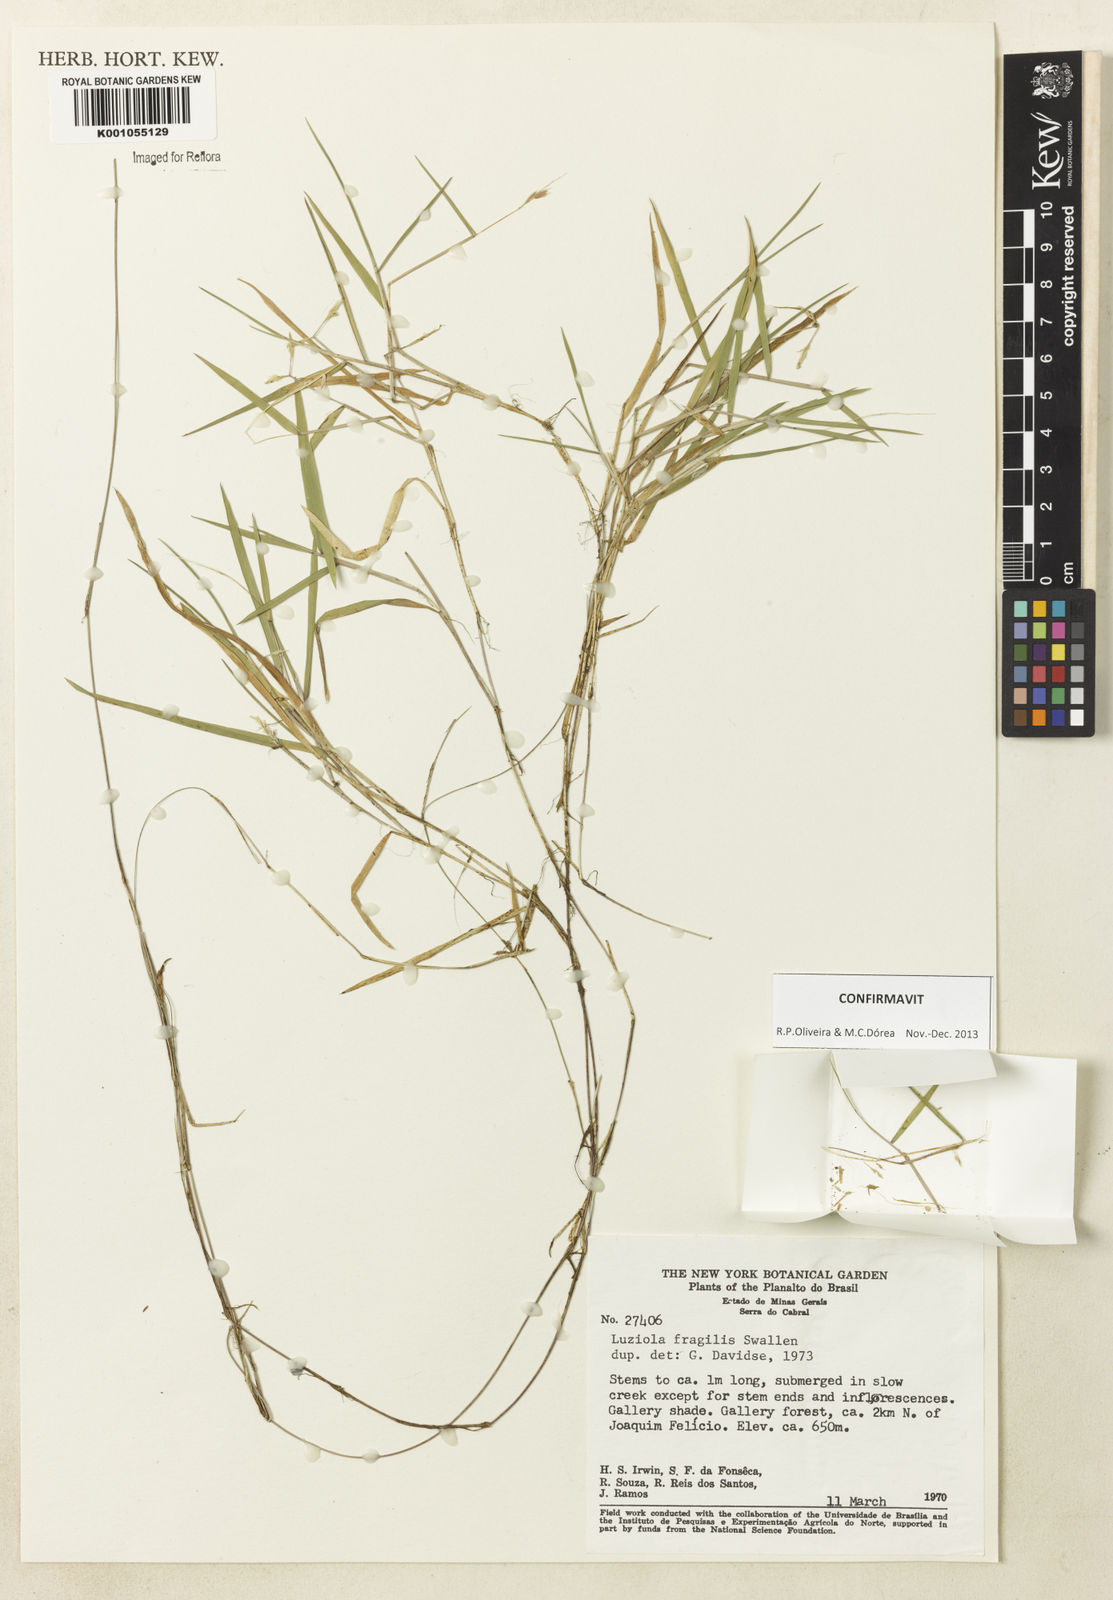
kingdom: Plantae
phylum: Tracheophyta
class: Liliopsida
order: Poales
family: Poaceae
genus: Luziola
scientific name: Luziola fragilis
